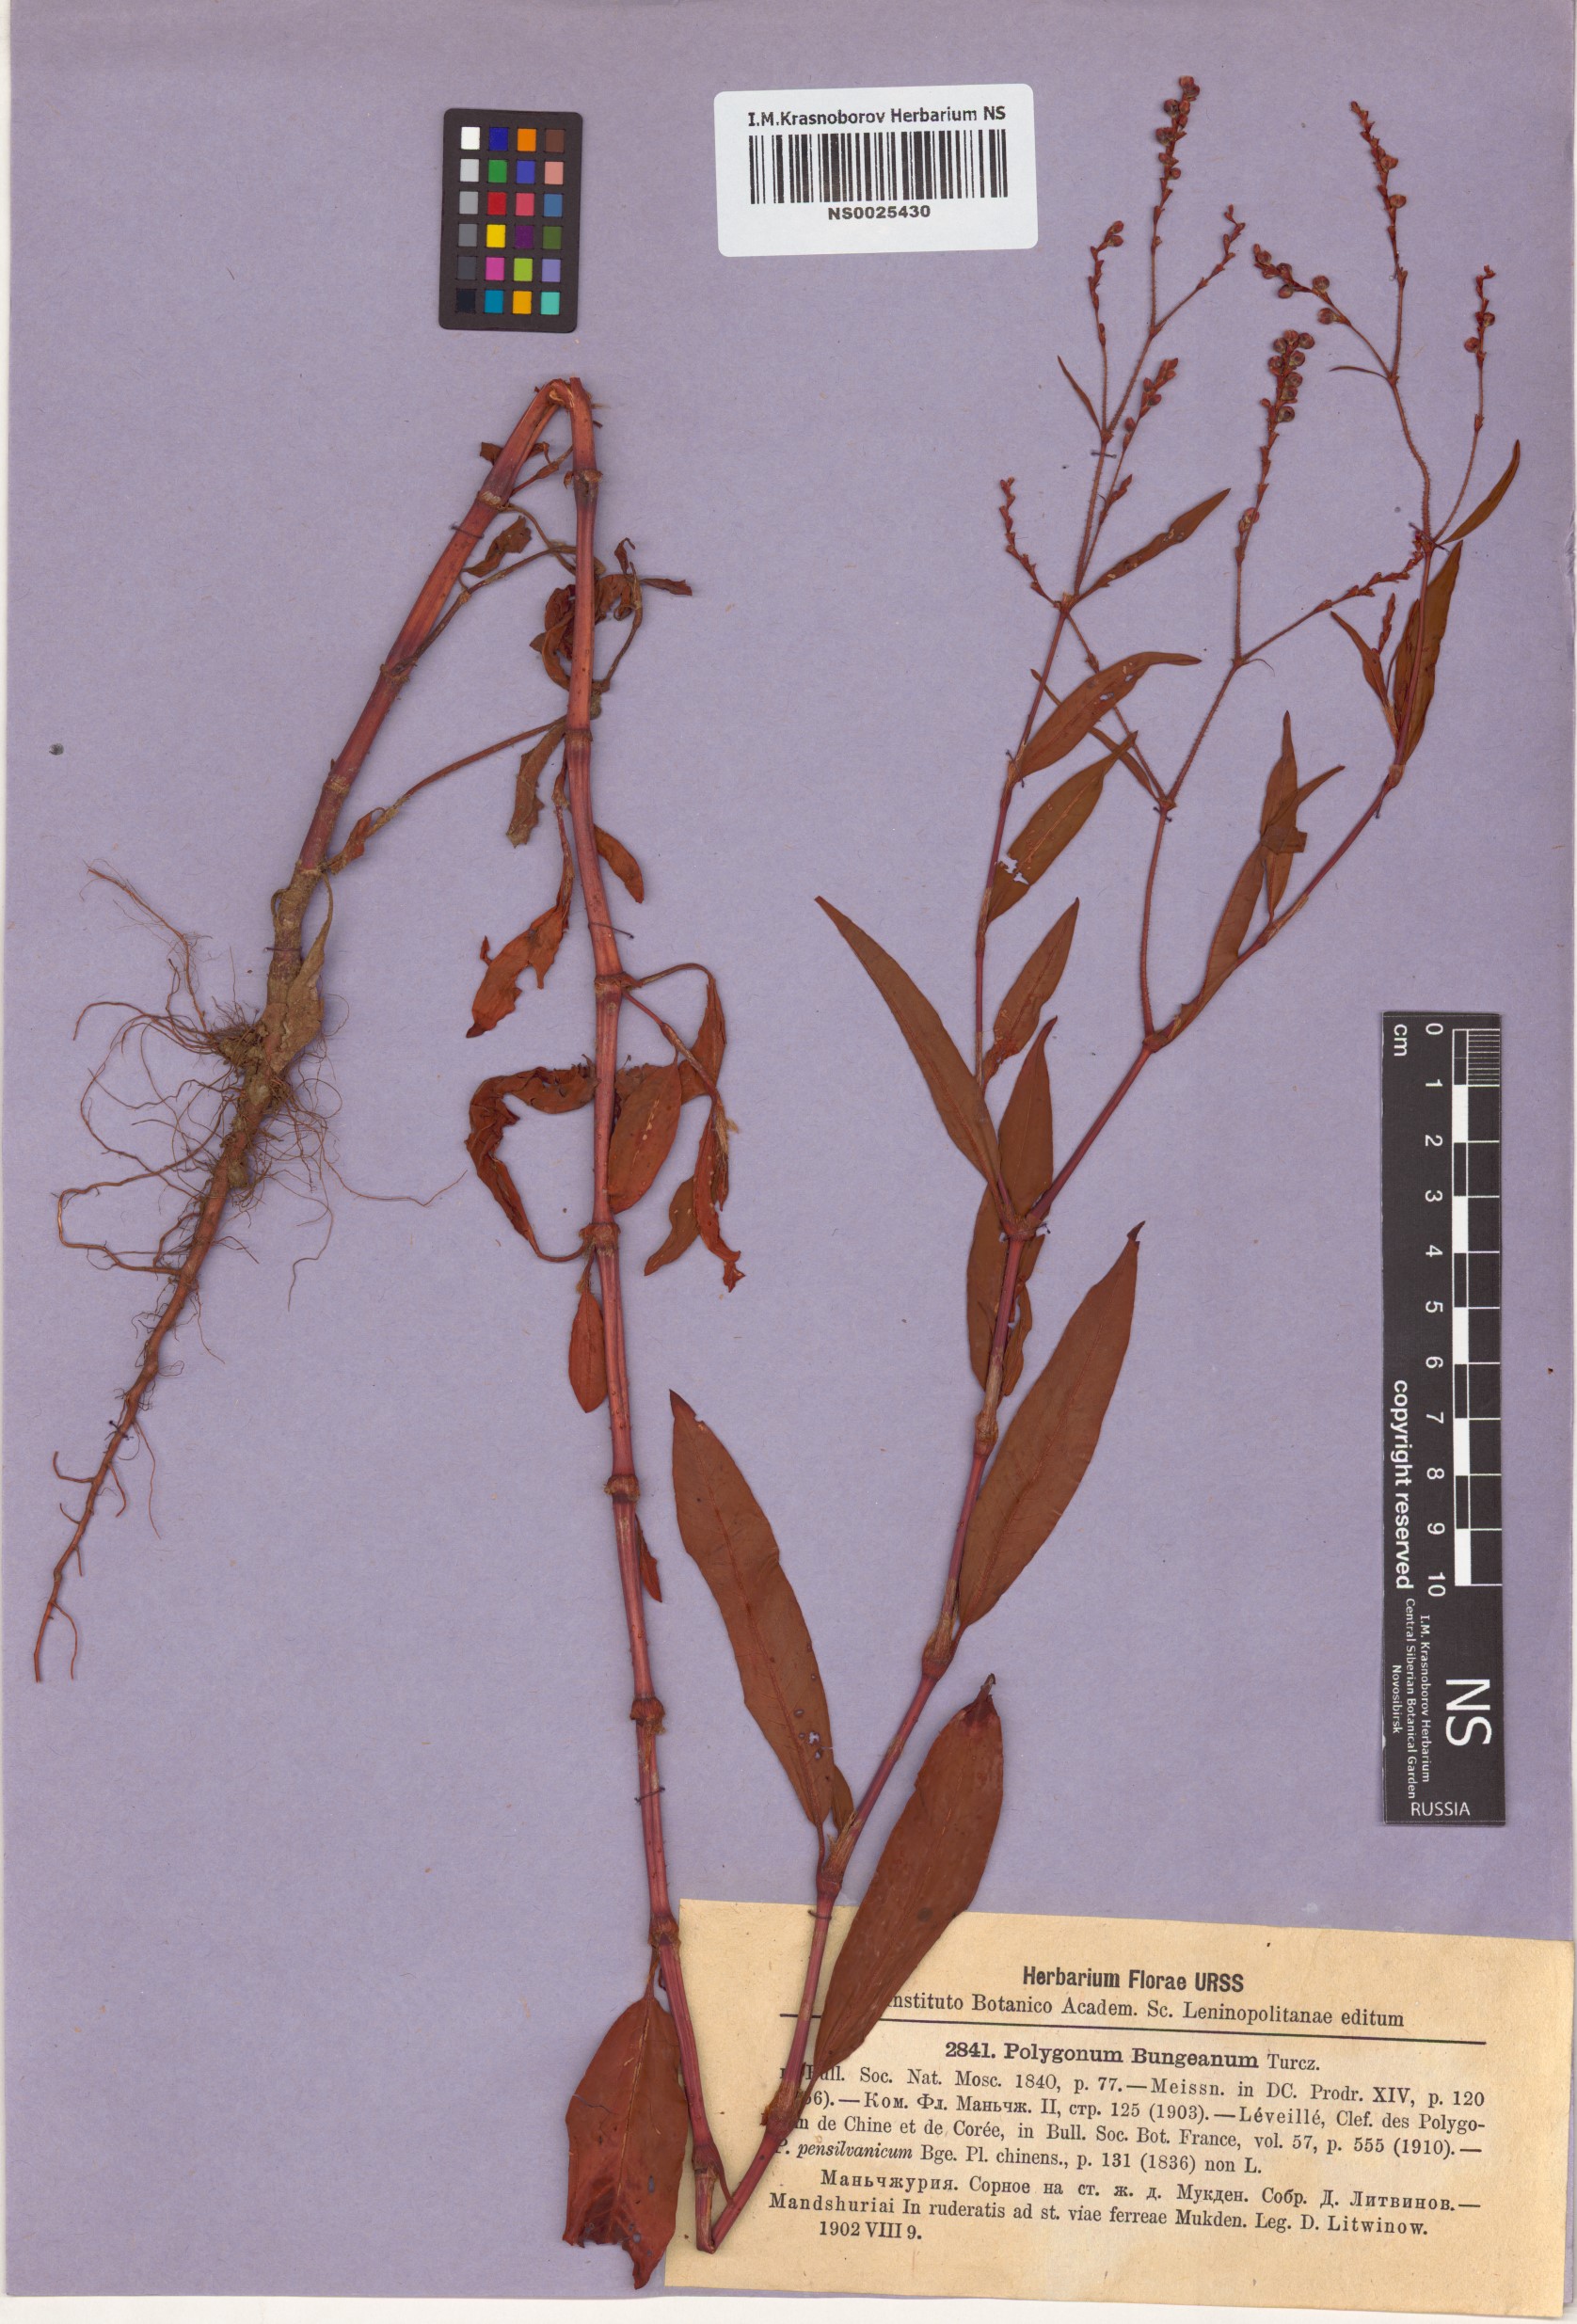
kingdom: Plantae
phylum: Tracheophyta
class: Magnoliopsida
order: Caryophyllales
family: Polygonaceae
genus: Persicaria
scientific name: Persicaria bungeana
